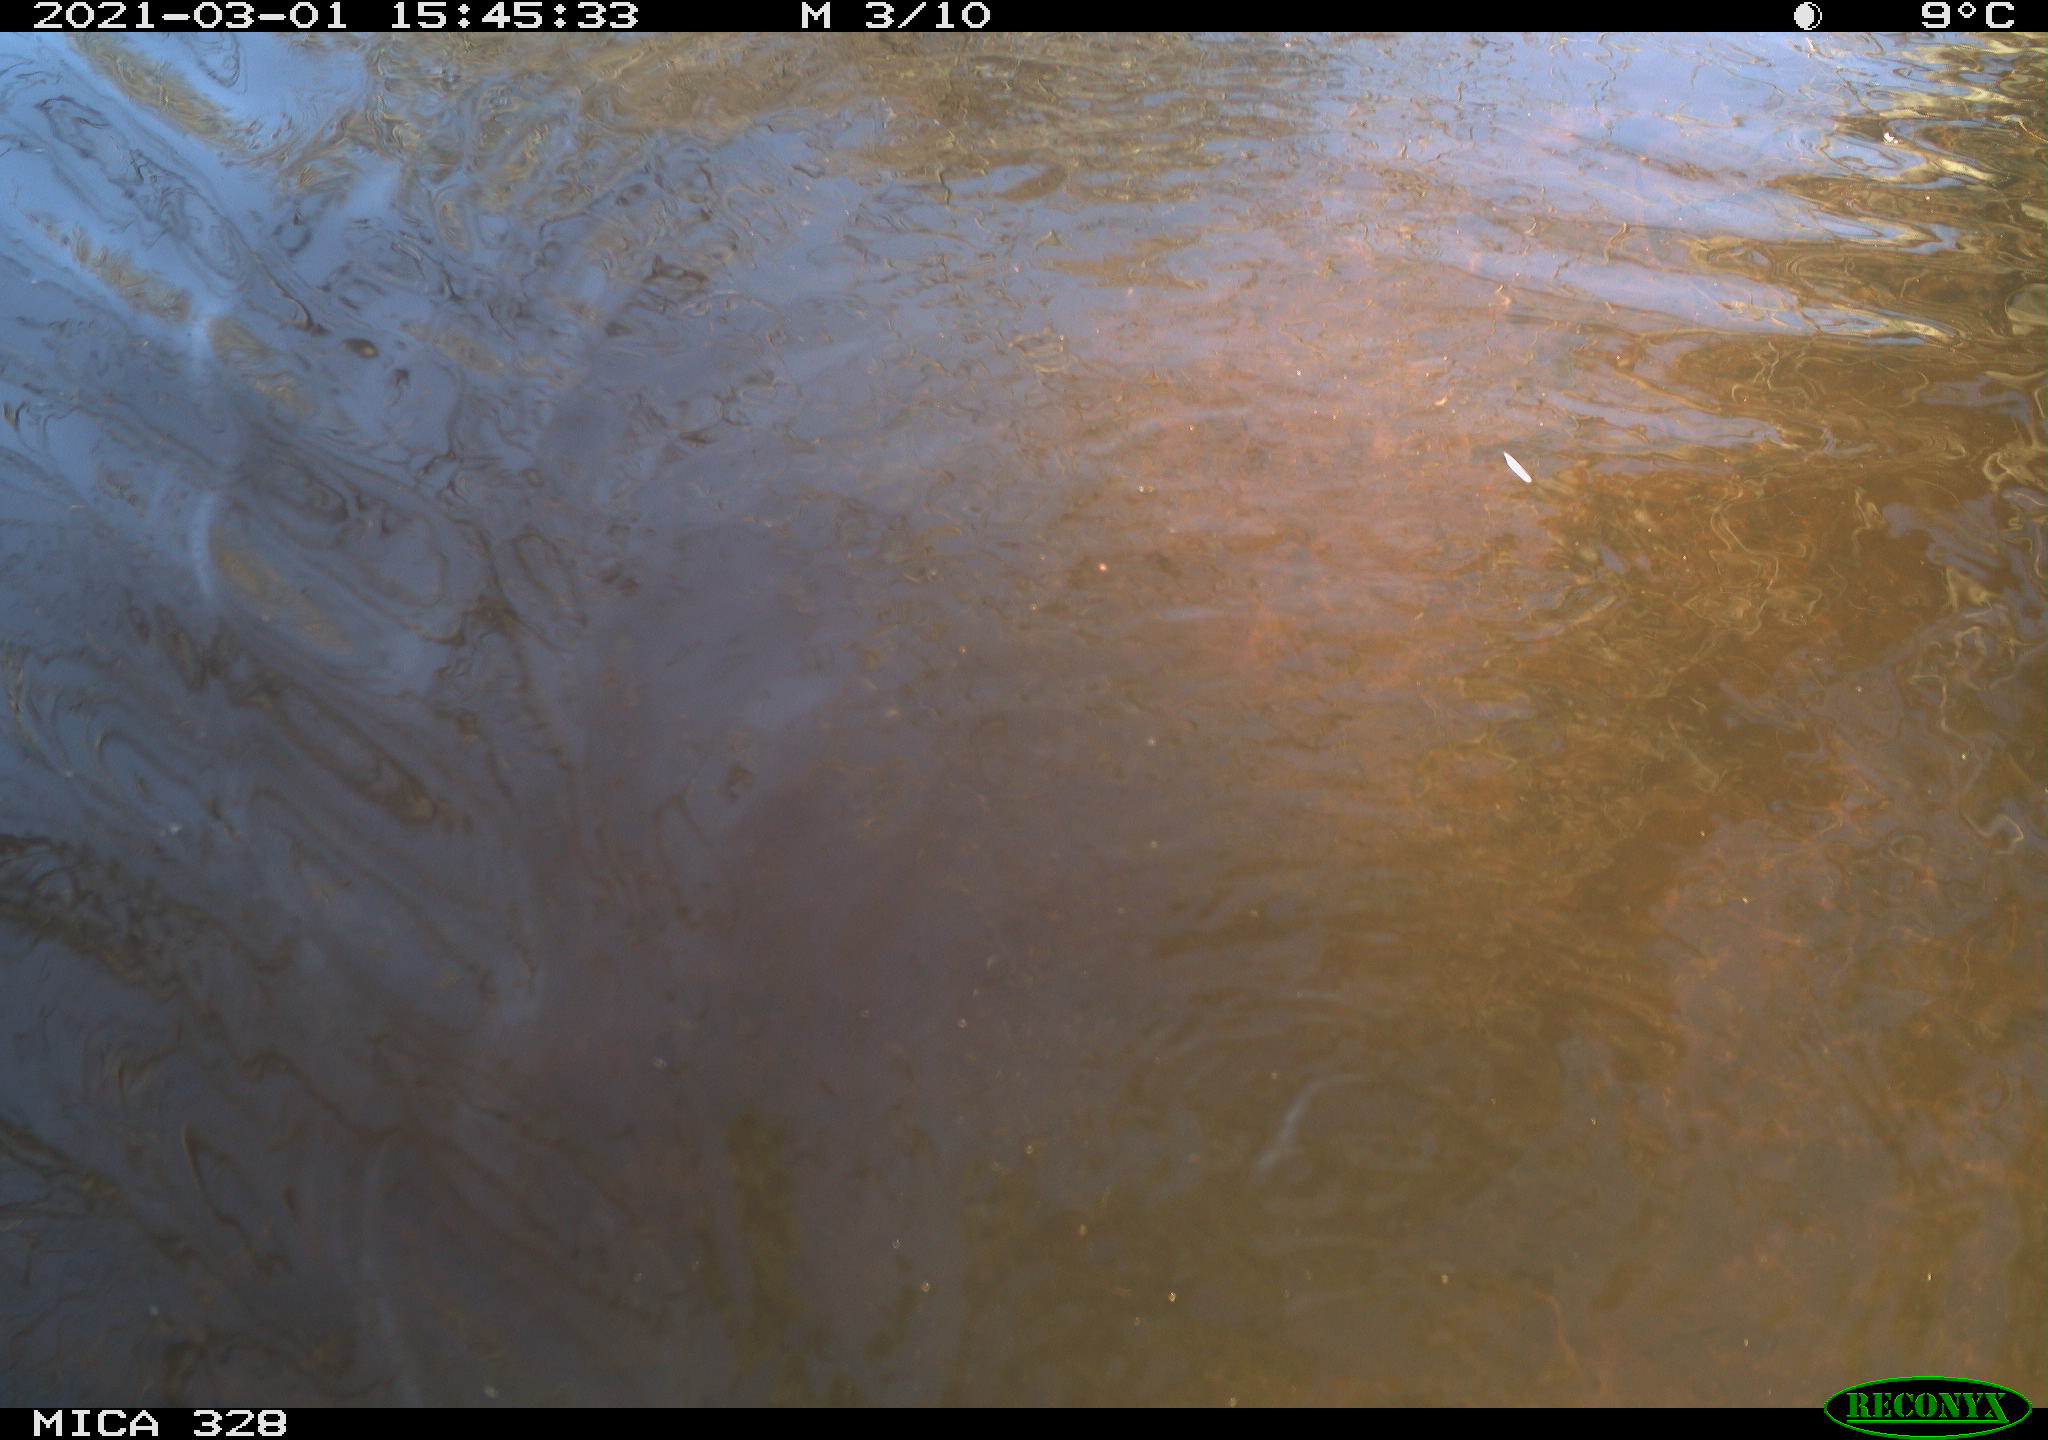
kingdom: Animalia
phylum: Chordata
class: Mammalia
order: Rodentia
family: Cricetidae
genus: Ondatra
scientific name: Ondatra zibethicus
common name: Muskrat
